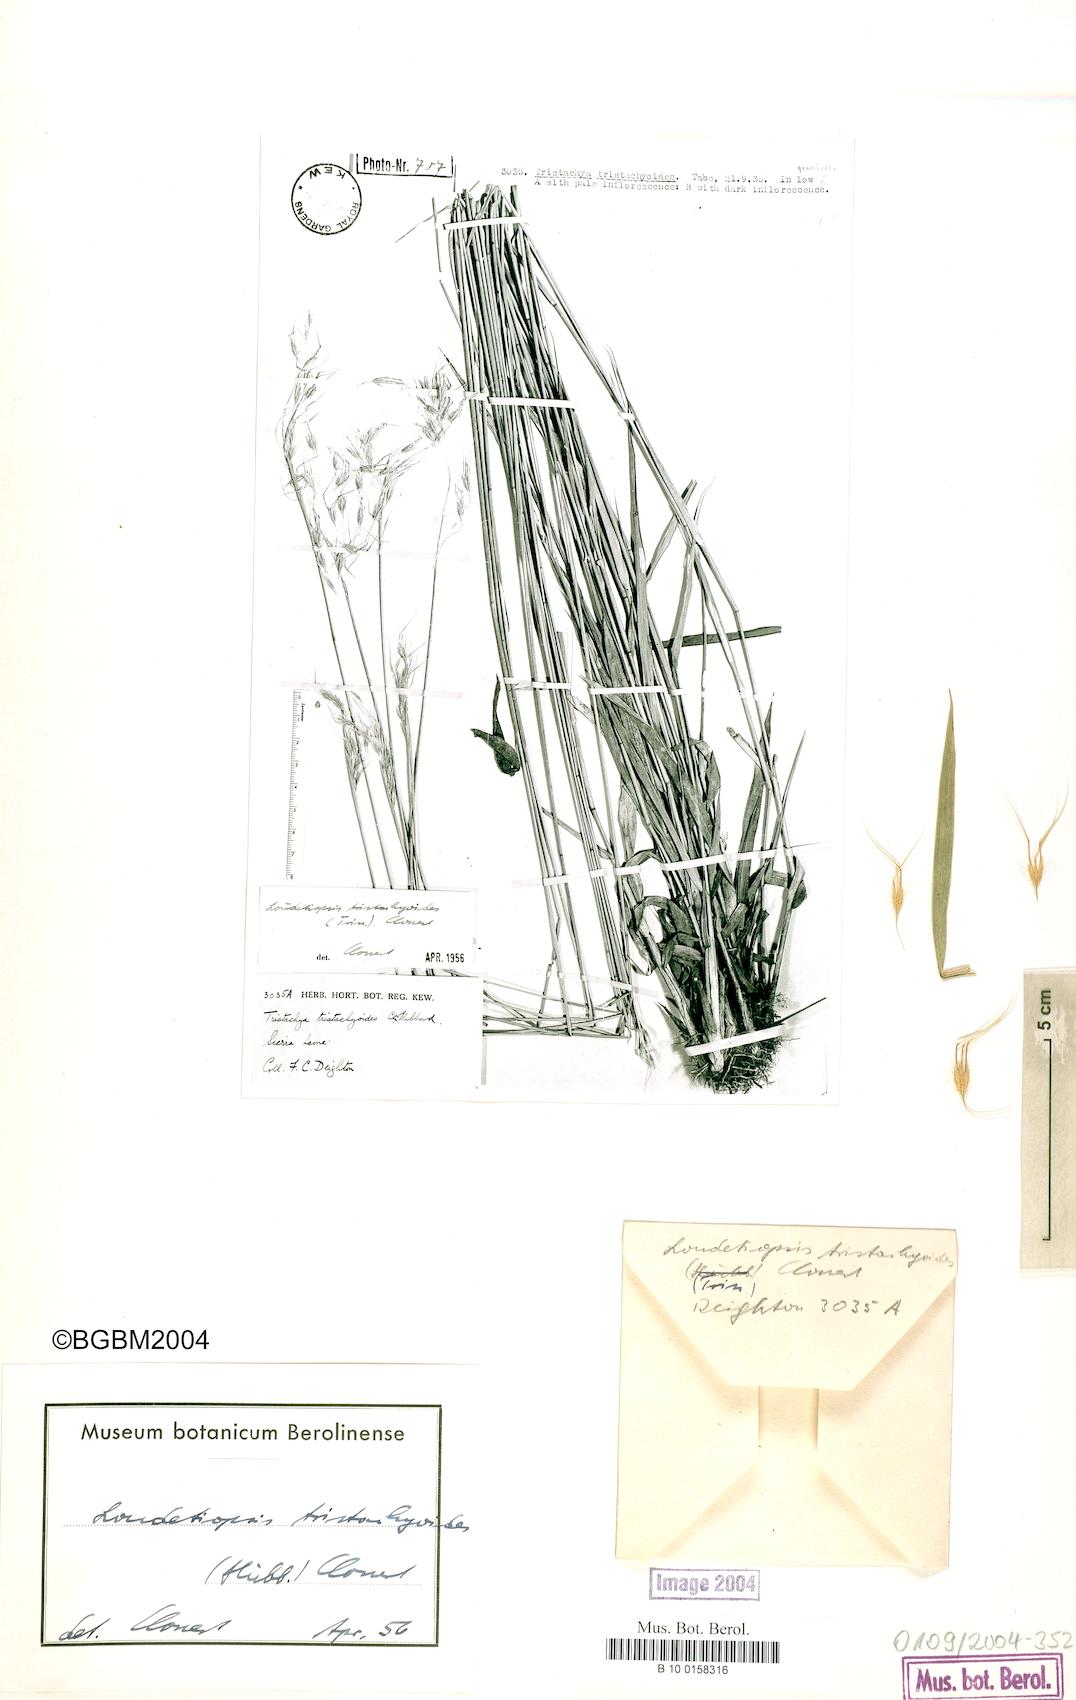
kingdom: Plantae
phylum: Tracheophyta
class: Liliopsida
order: Poales
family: Poaceae
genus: Dilophotriche
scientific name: Dilophotriche tristachyoides
